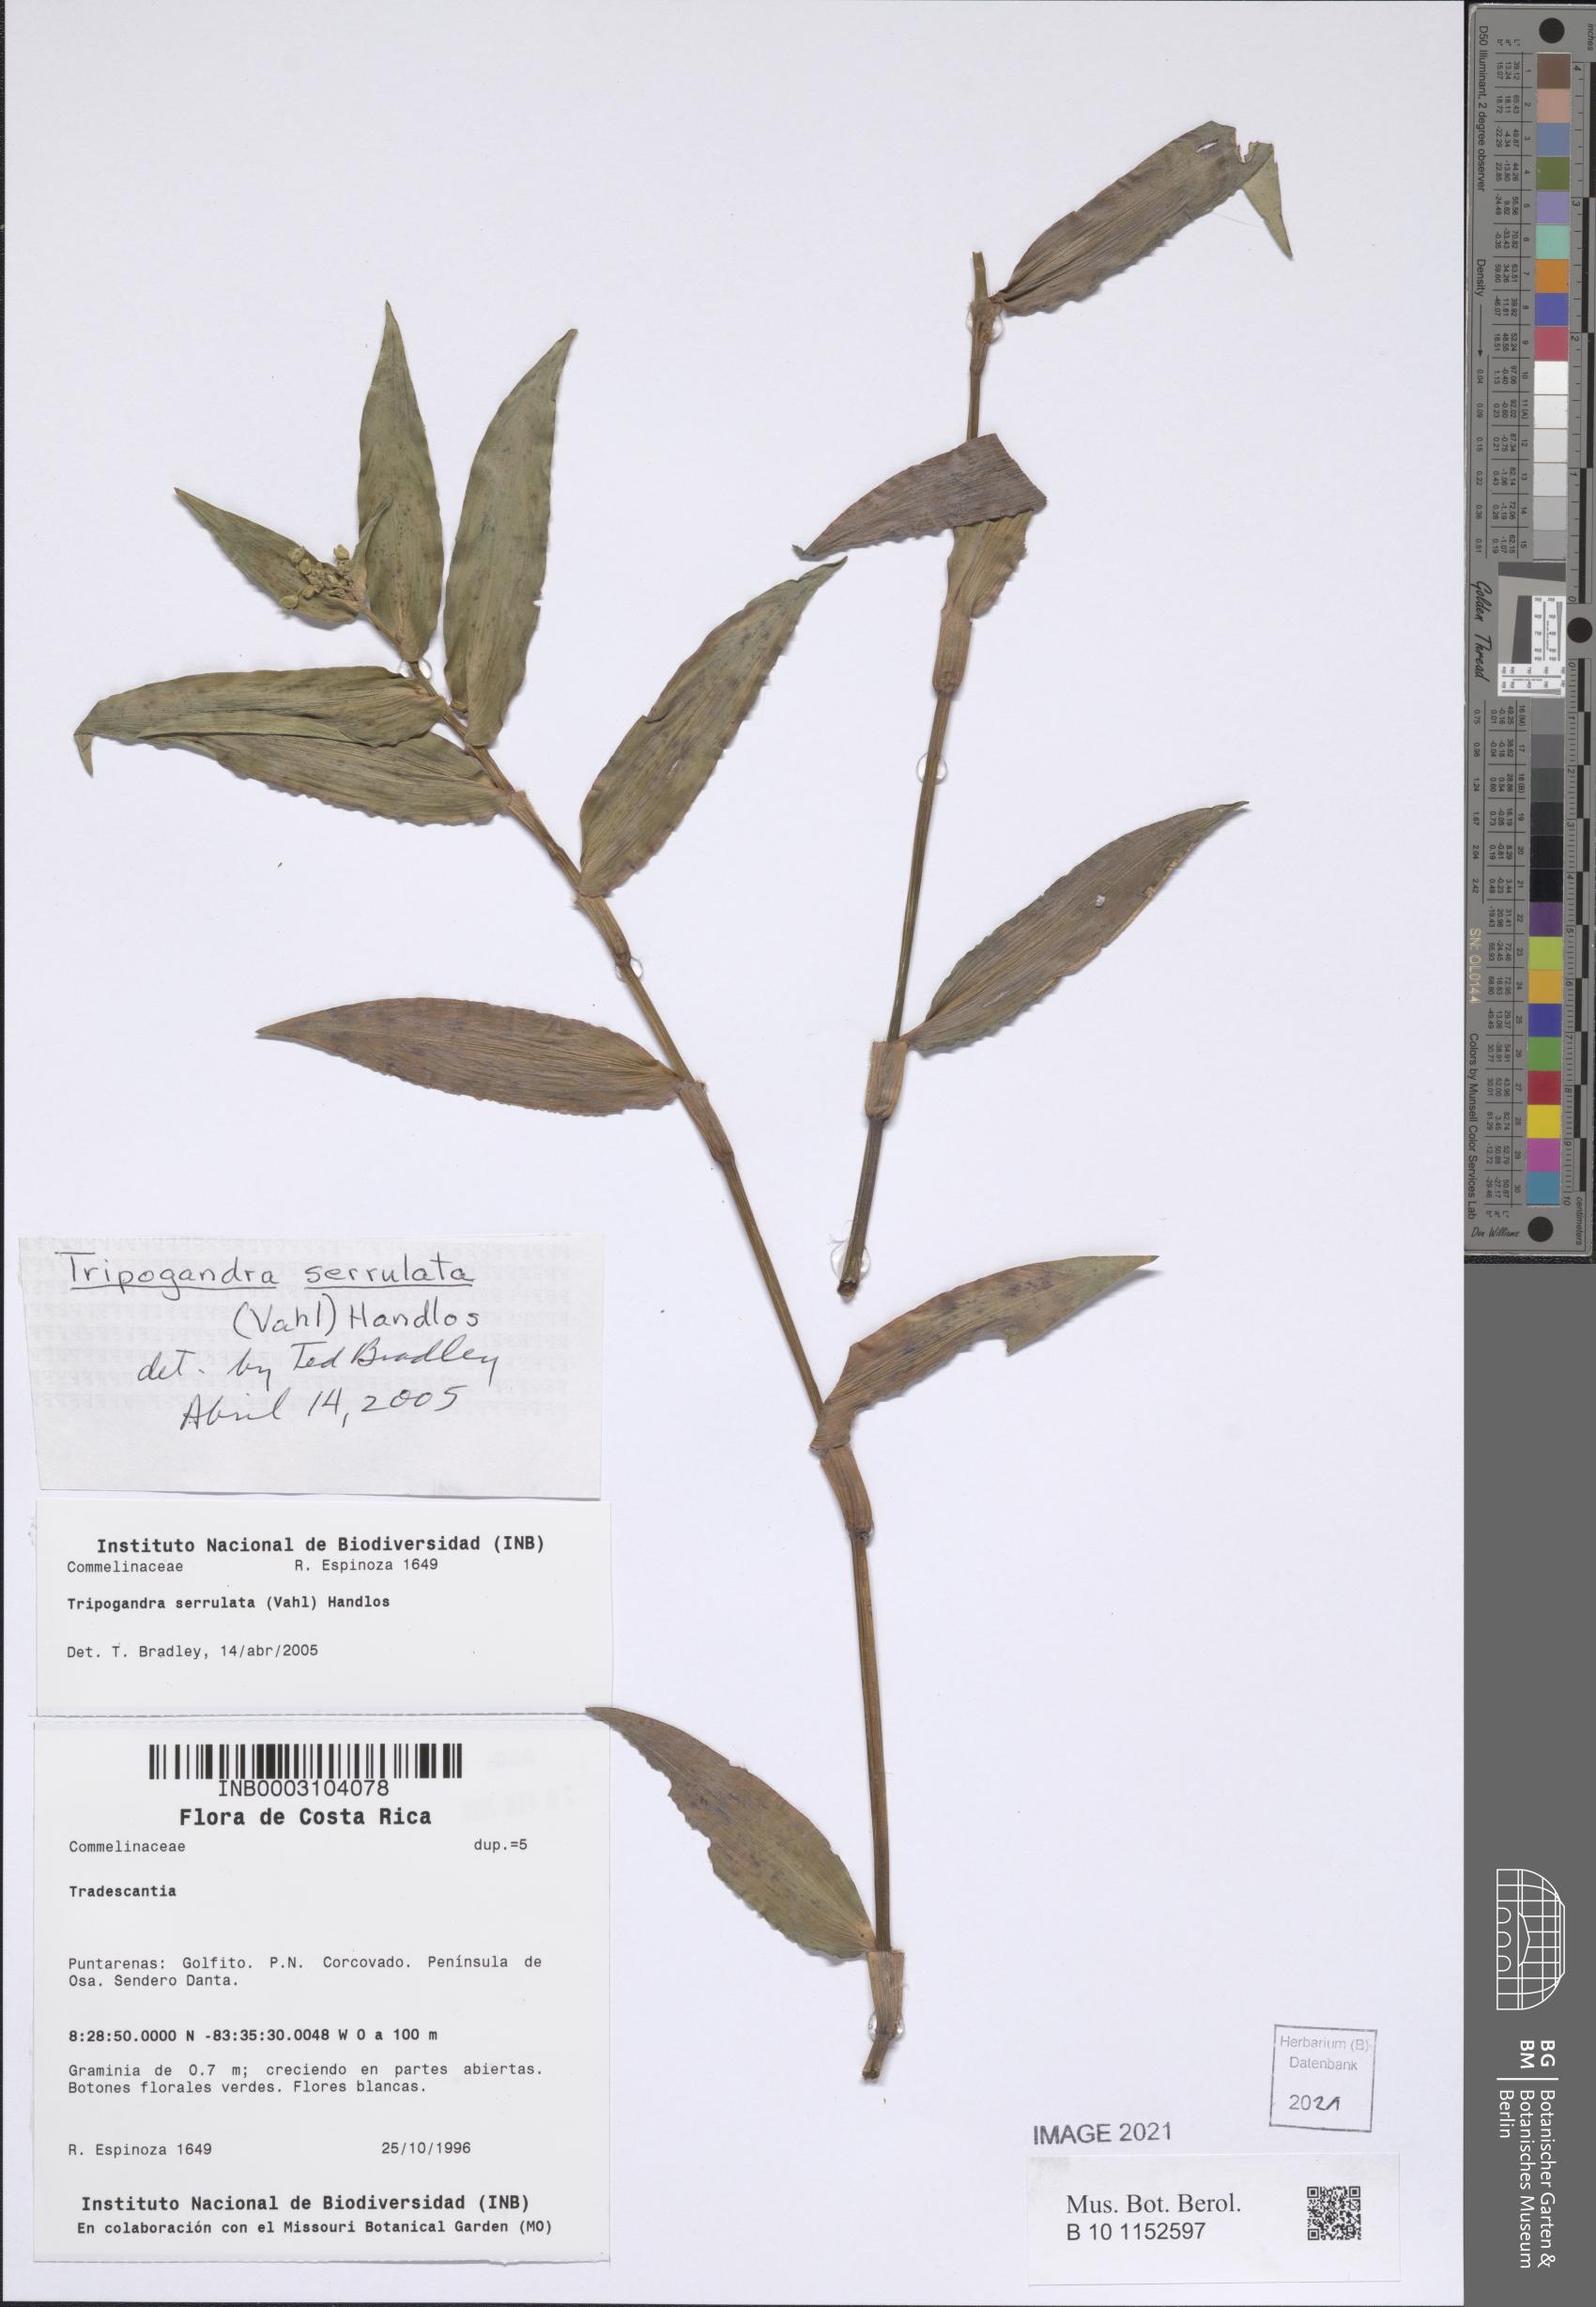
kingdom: Plantae
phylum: Tracheophyta
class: Liliopsida
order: Commelinales
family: Commelinaceae
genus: Callisia
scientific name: Callisia serrulata
